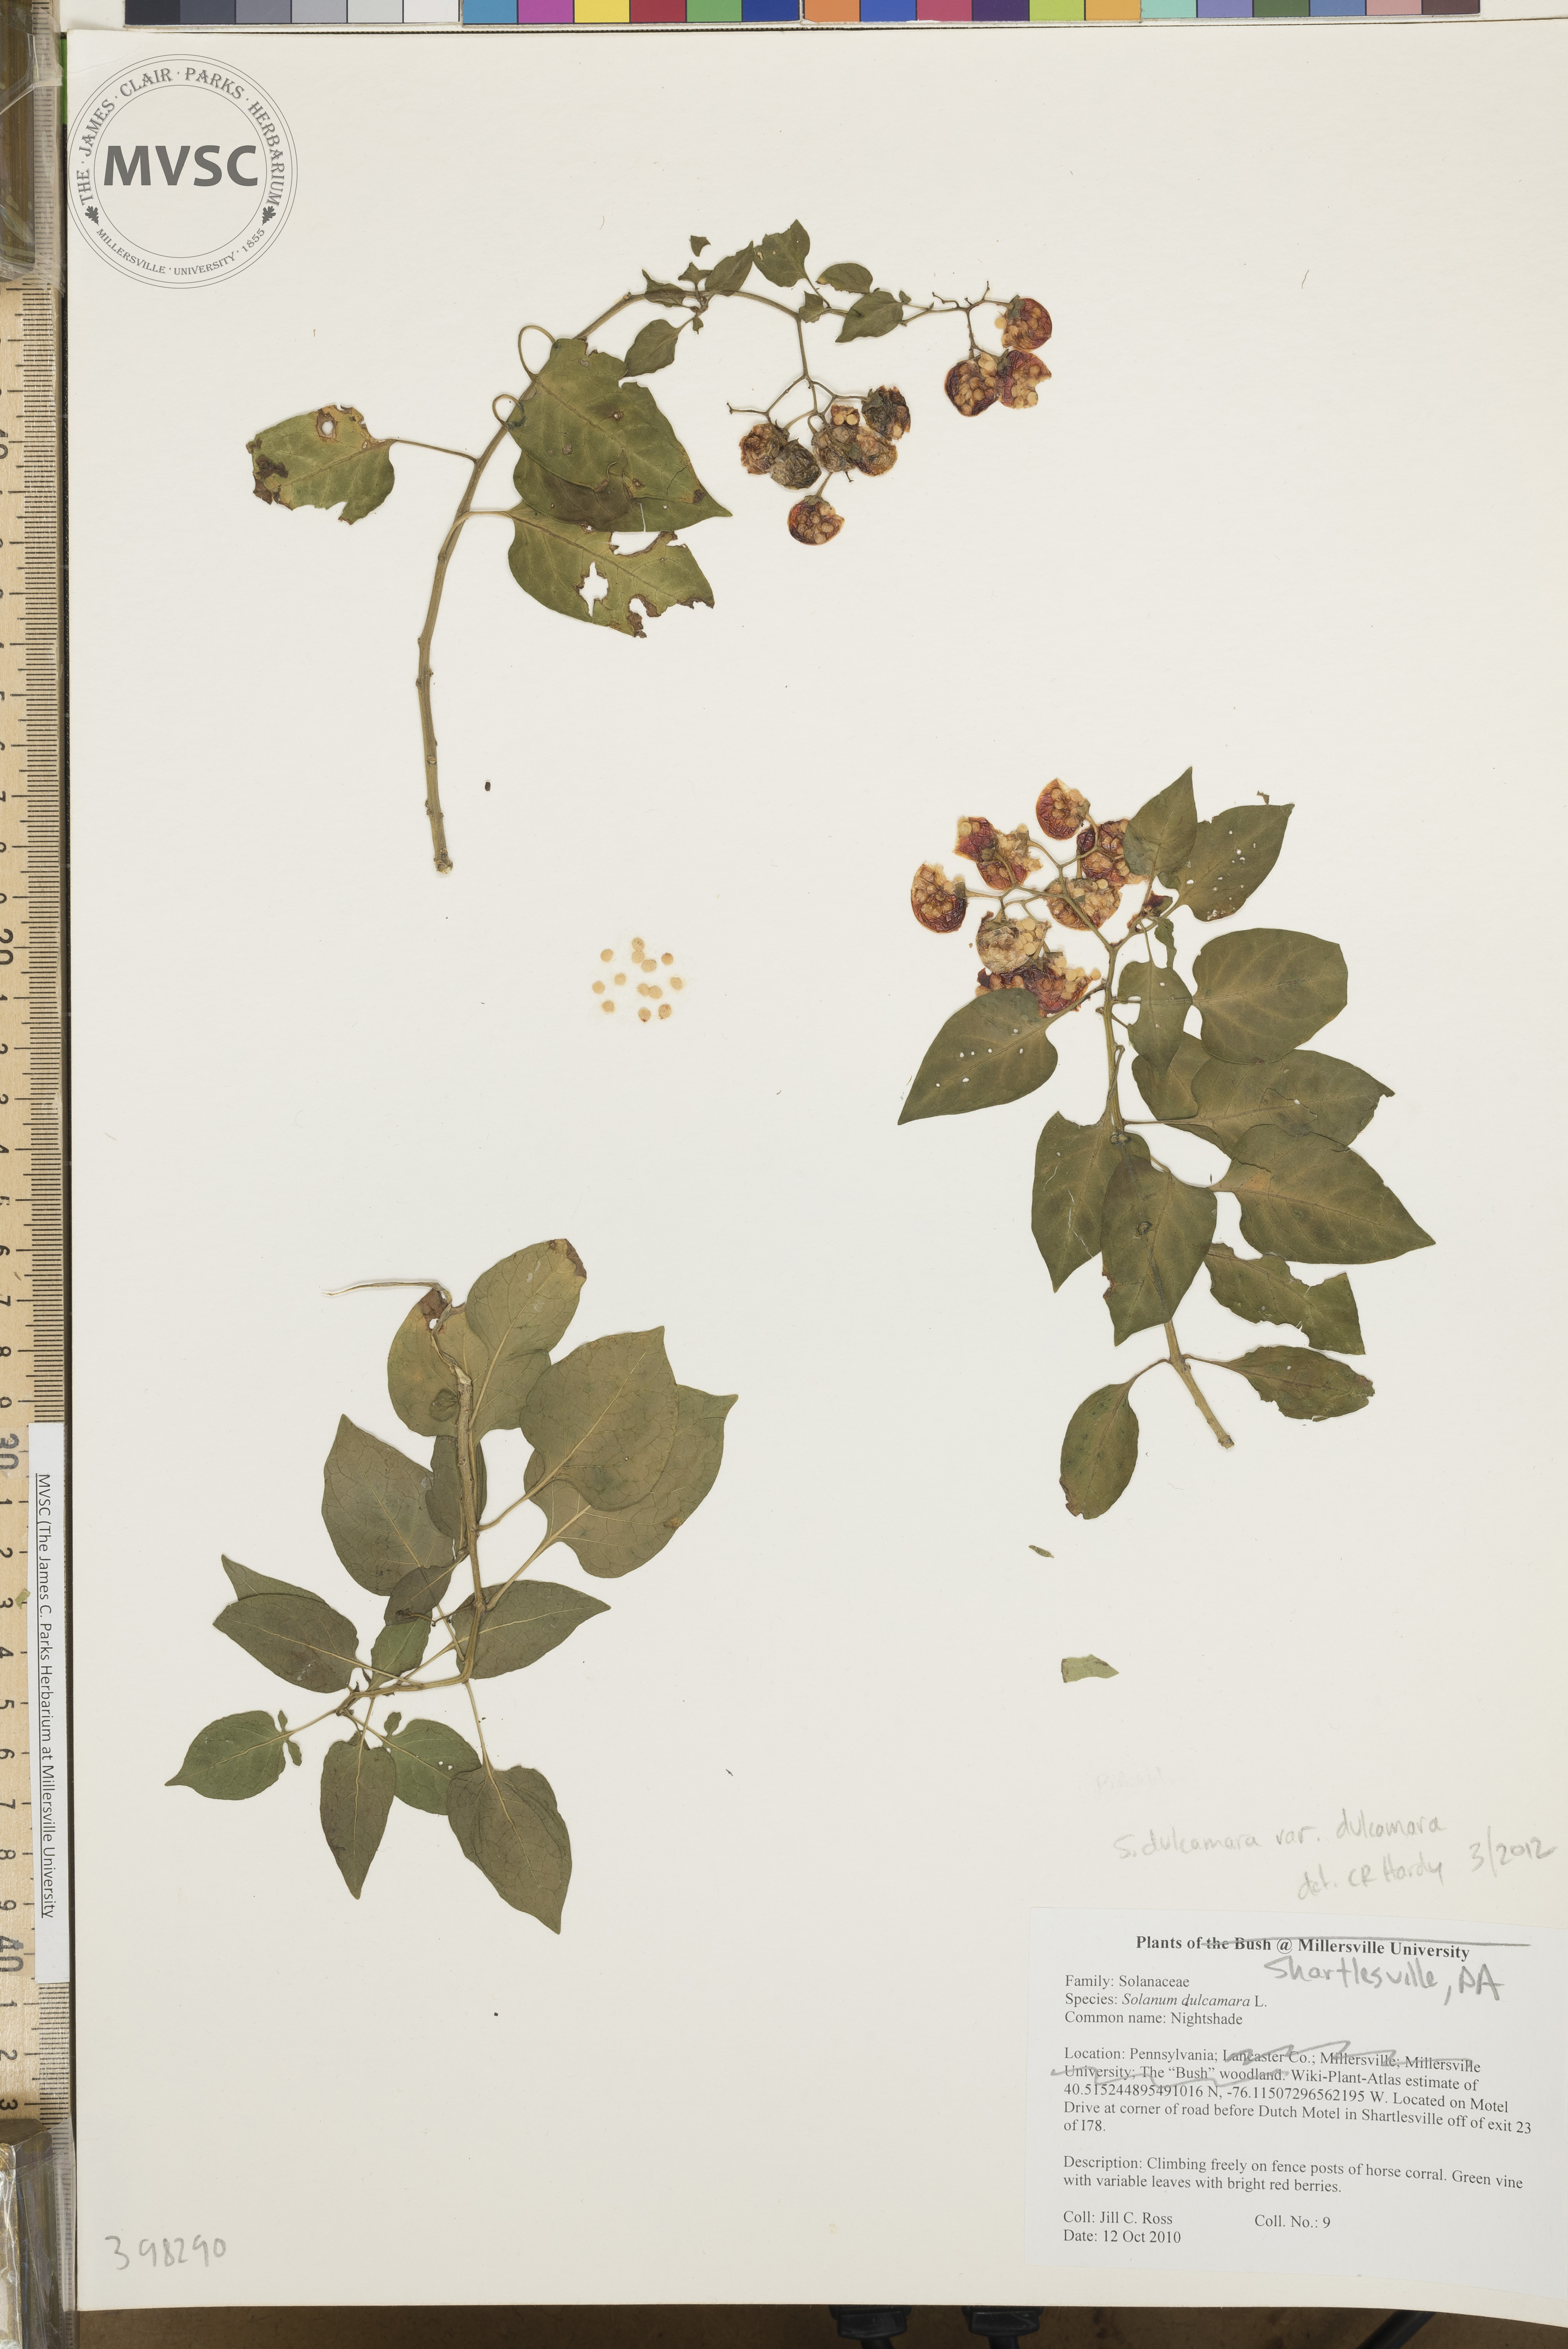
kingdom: Plantae
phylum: Tracheophyta
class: Magnoliopsida
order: Solanales
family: Solanaceae
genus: Solanum
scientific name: Solanum dulcamara
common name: Horse-nettle
